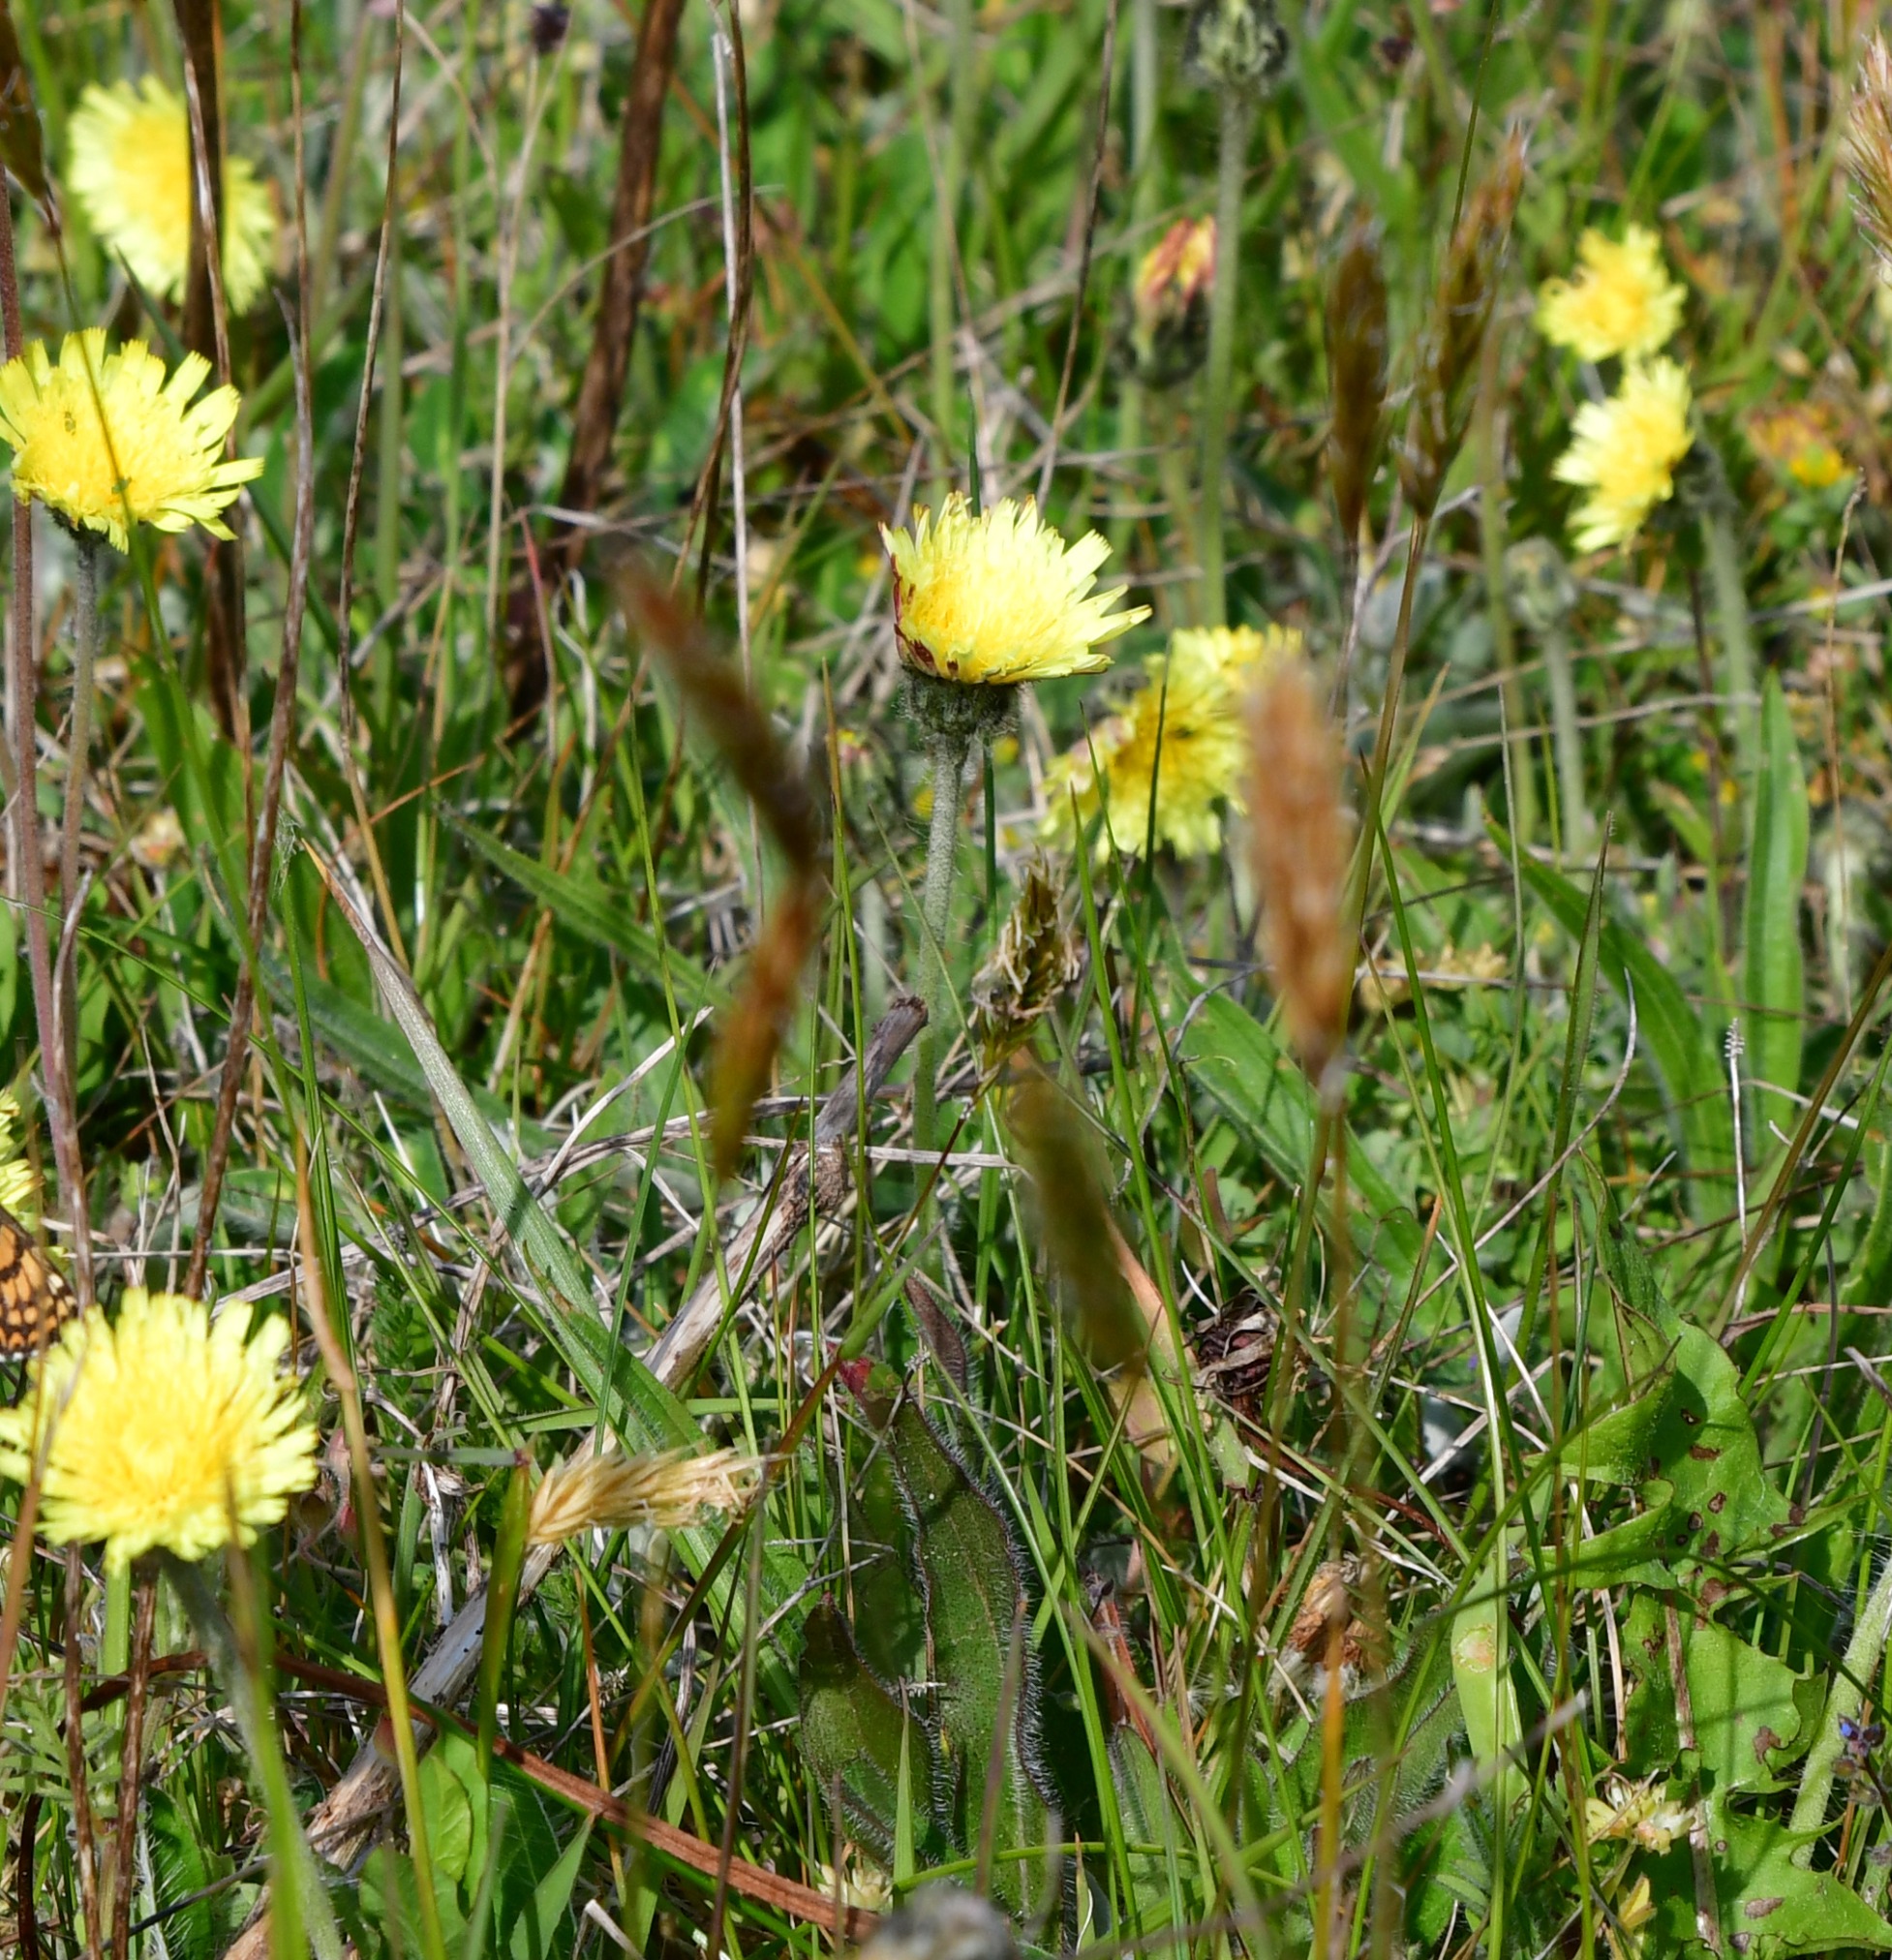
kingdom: Plantae
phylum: Tracheophyta
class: Magnoliopsida
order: Asterales
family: Asteraceae
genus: Pilosella
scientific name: Pilosella officinarum
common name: Håret høgeurt
